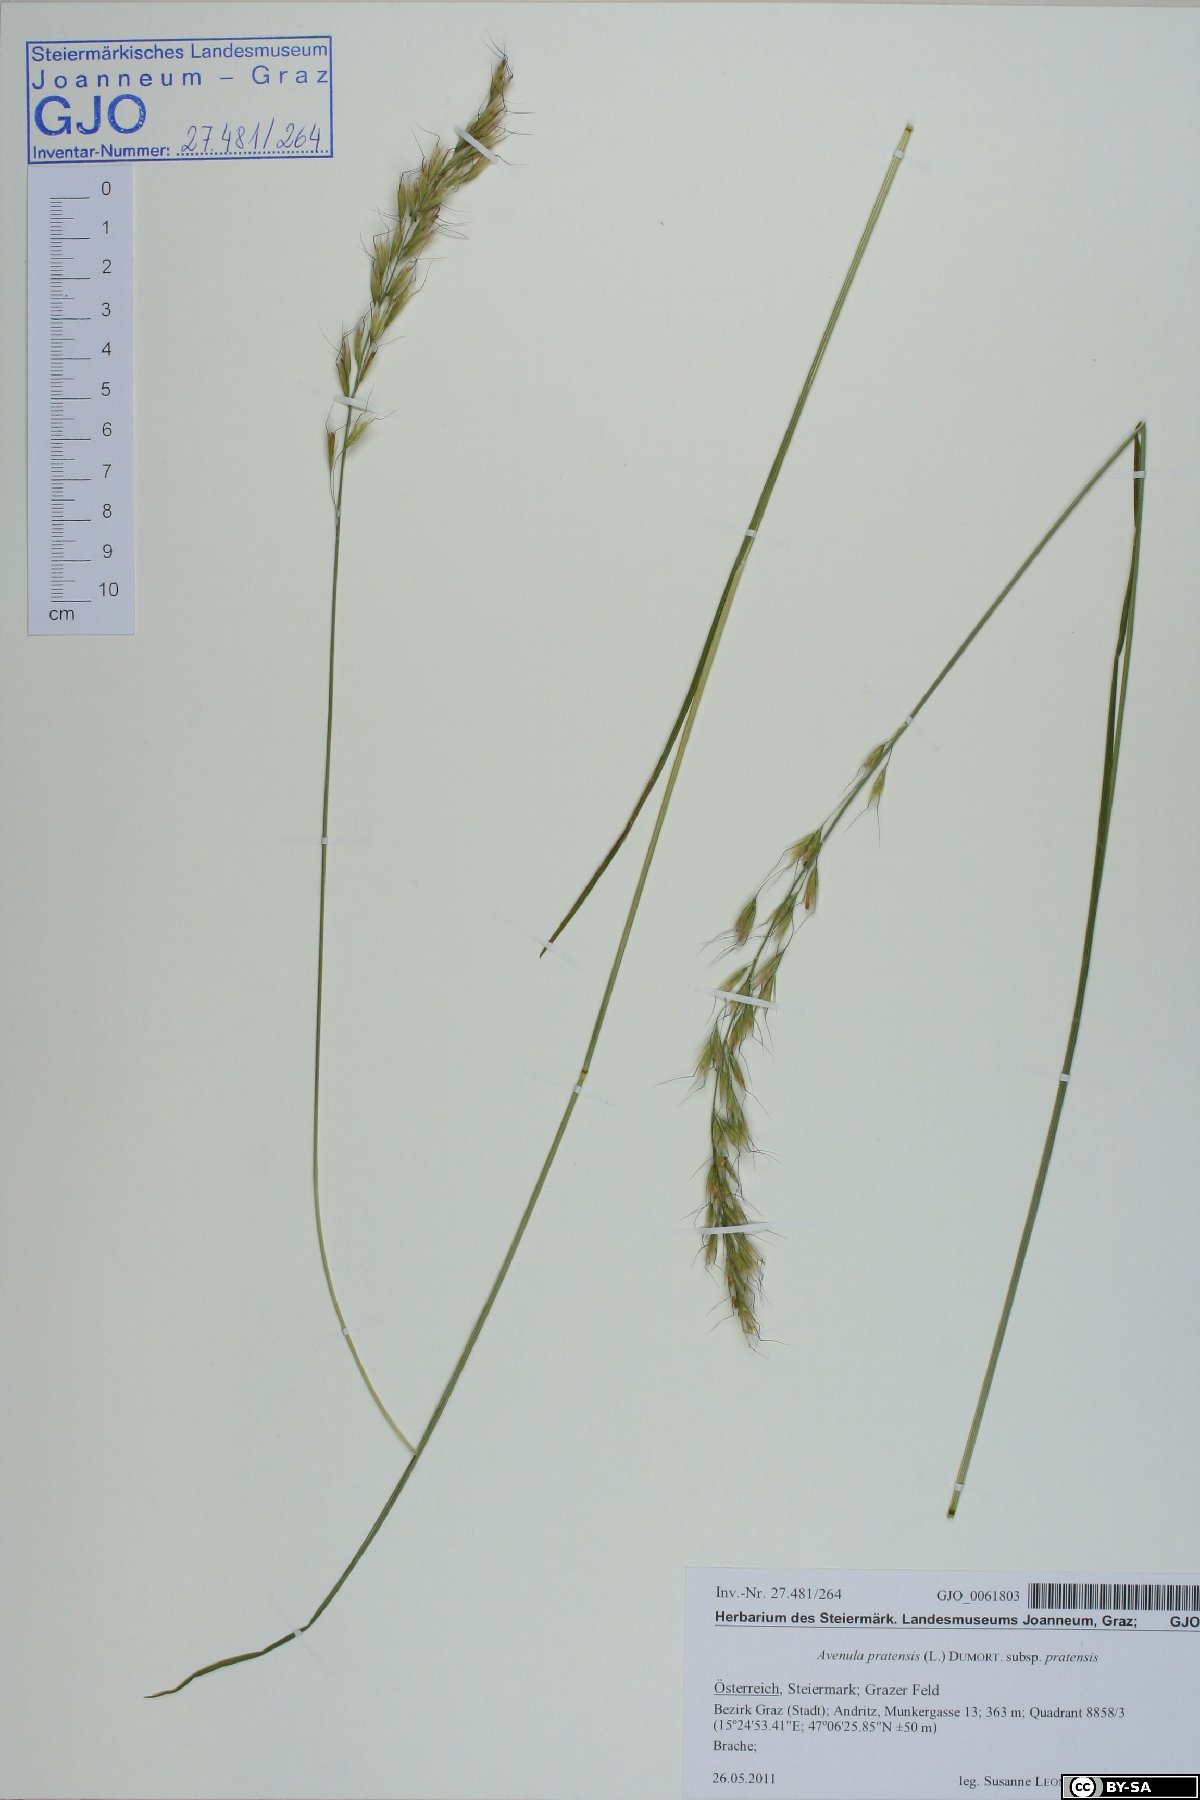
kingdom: Plantae
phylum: Tracheophyta
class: Liliopsida
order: Poales
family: Poaceae
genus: Helictochloa
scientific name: Helictochloa pratensis
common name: Meadow oat grass
